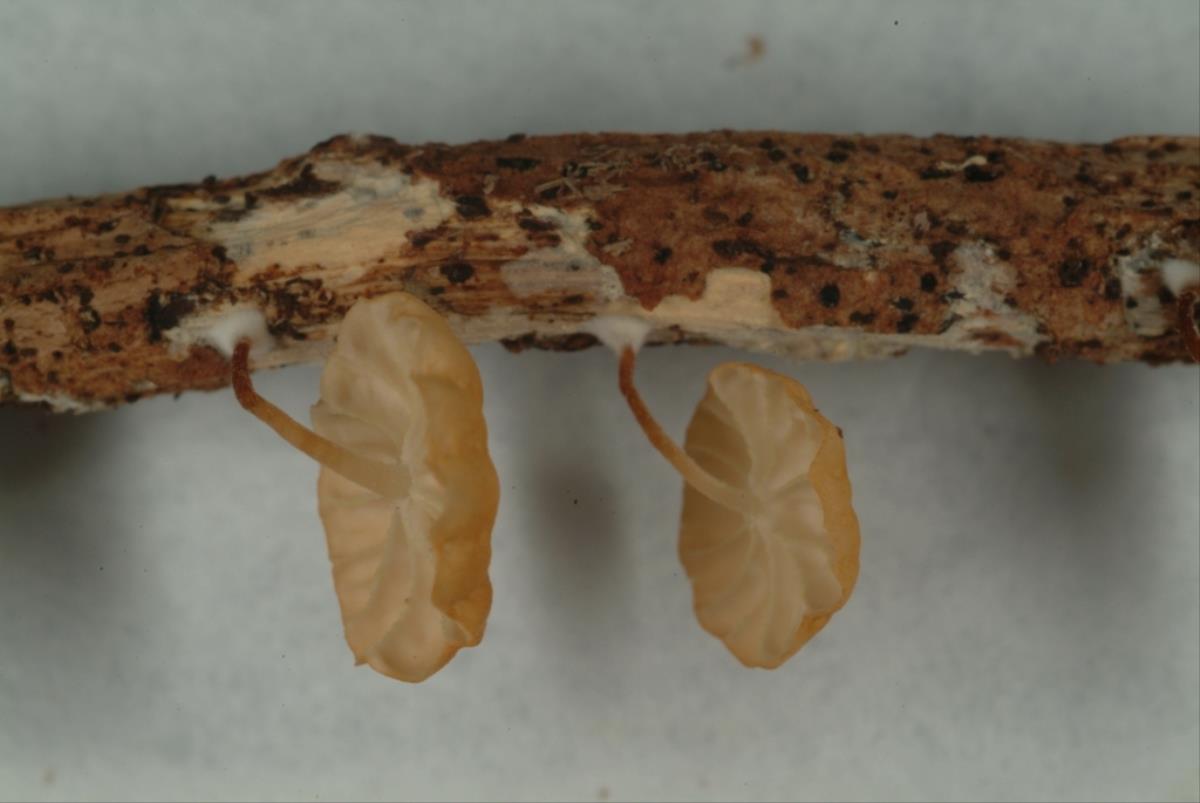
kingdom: Fungi
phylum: Basidiomycota
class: Agaricomycetes
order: Agaricales
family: Marasmiaceae
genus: Marasmius
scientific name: Marasmius
